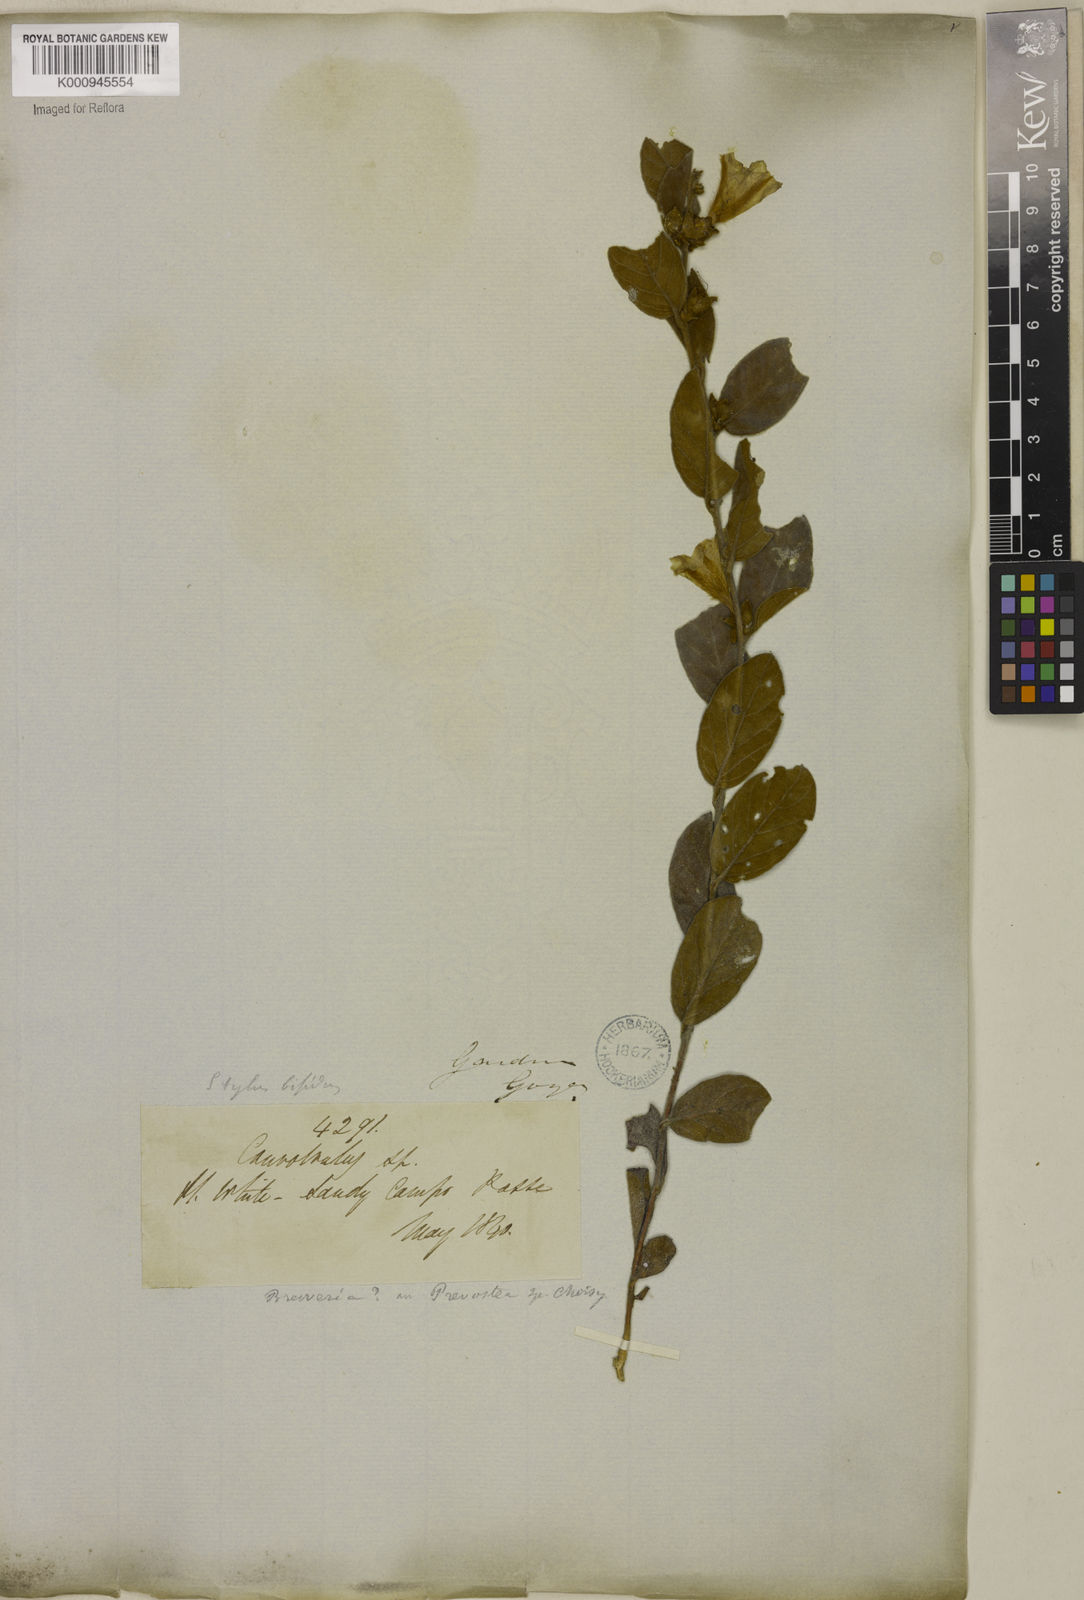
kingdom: Plantae
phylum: Tracheophyta
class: Magnoliopsida
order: Solanales
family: Convolvulaceae
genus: Bonamia
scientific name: Bonamia
